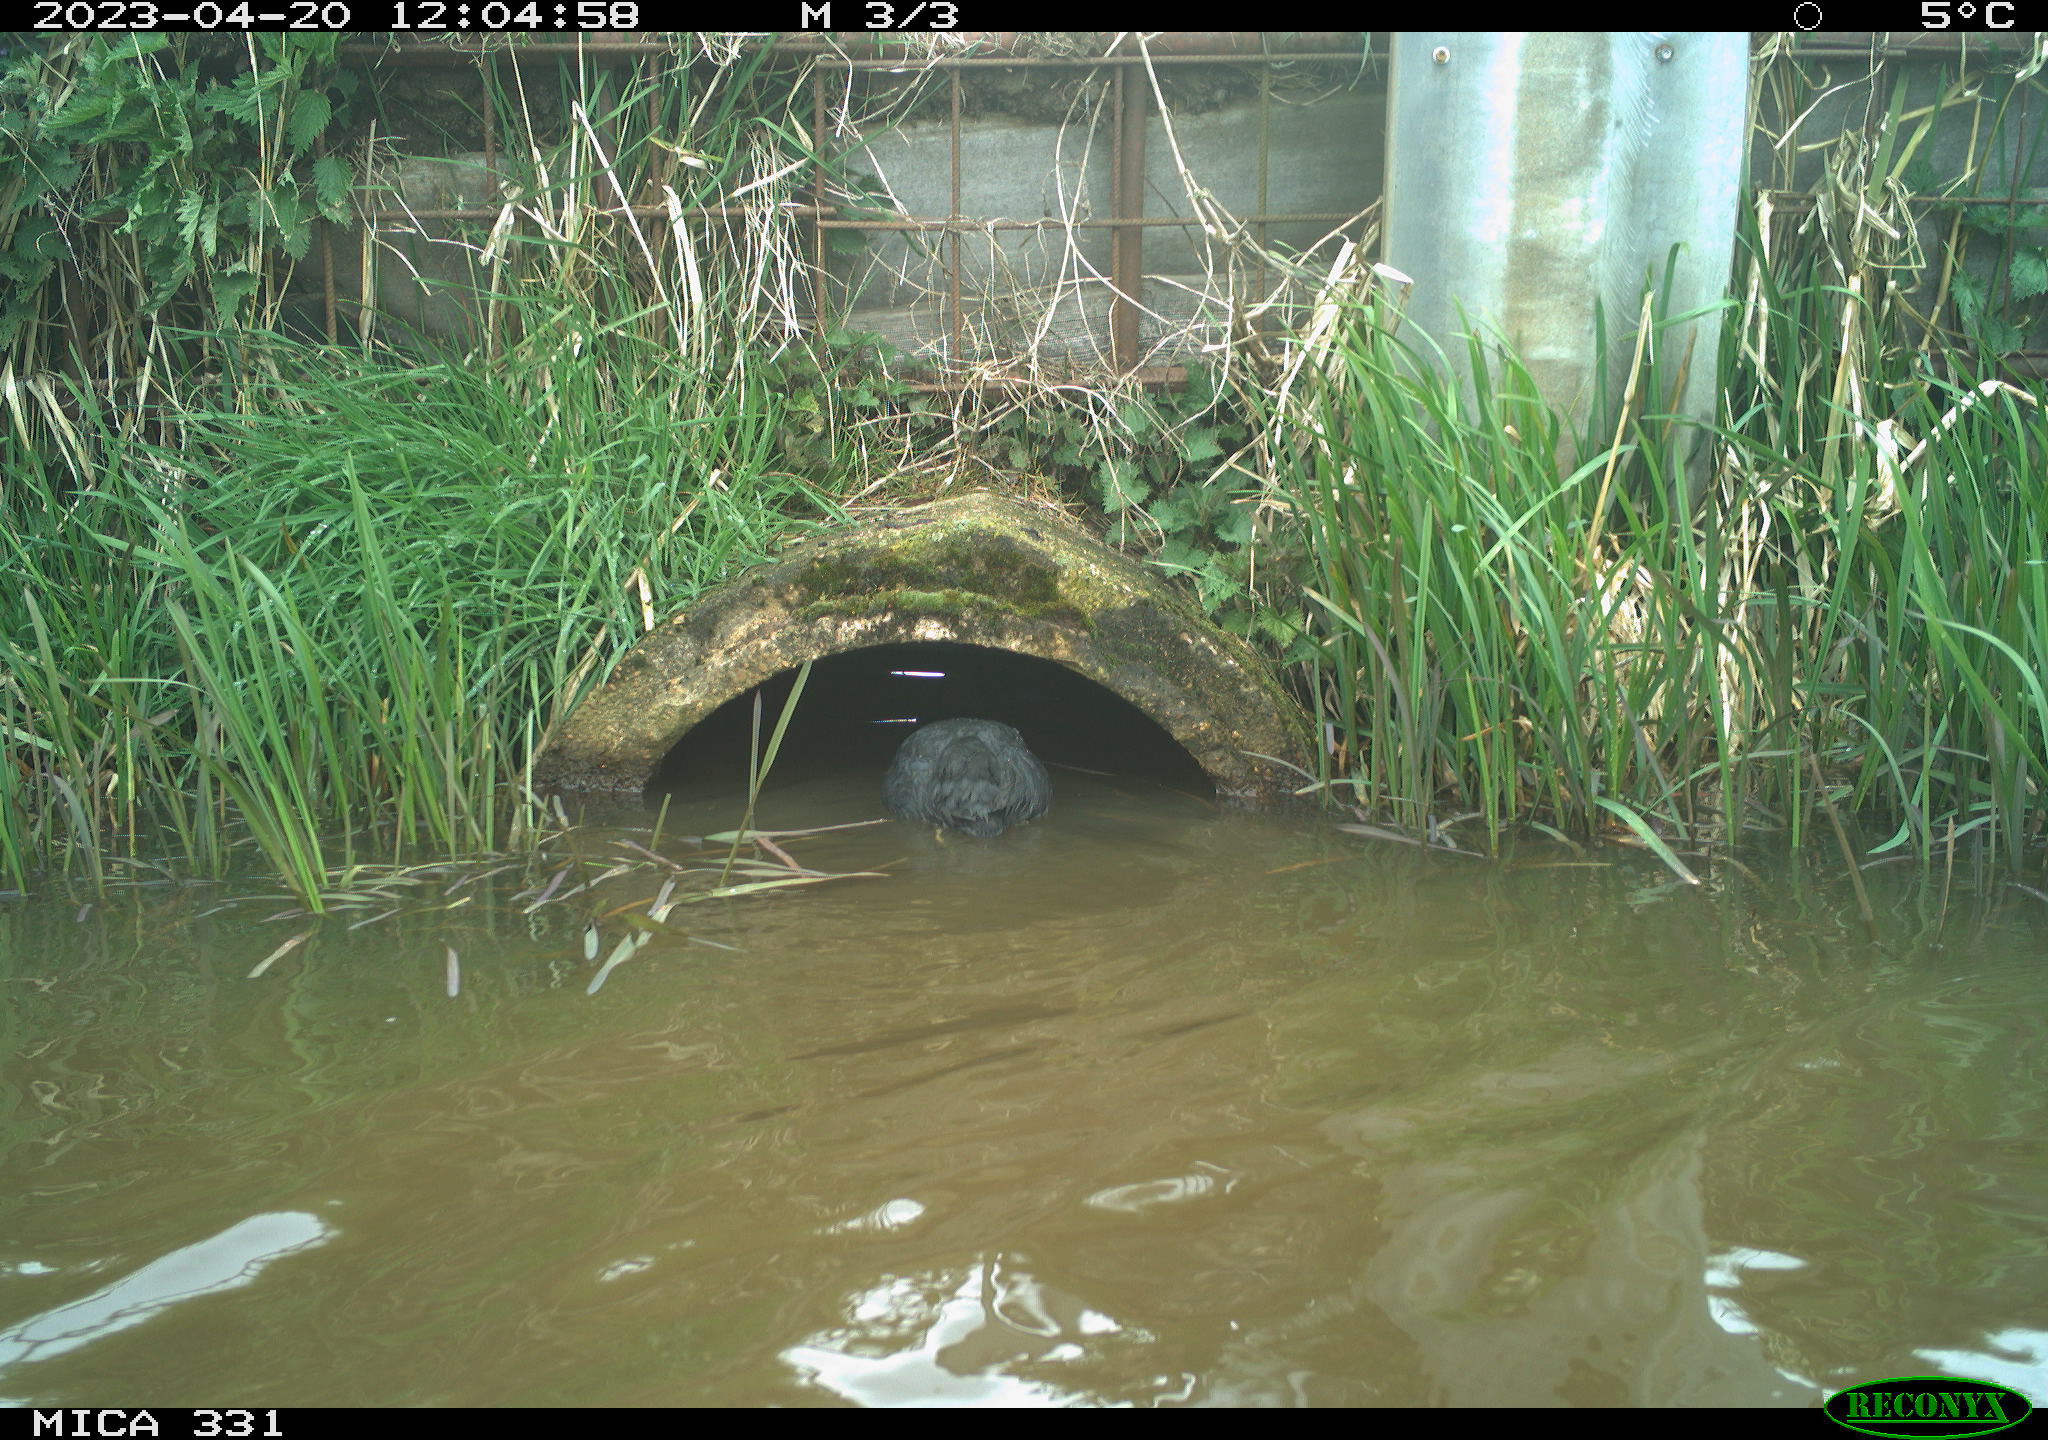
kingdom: Animalia
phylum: Chordata
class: Aves
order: Gruiformes
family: Rallidae
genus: Gallinula
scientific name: Gallinula chloropus
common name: Common moorhen
